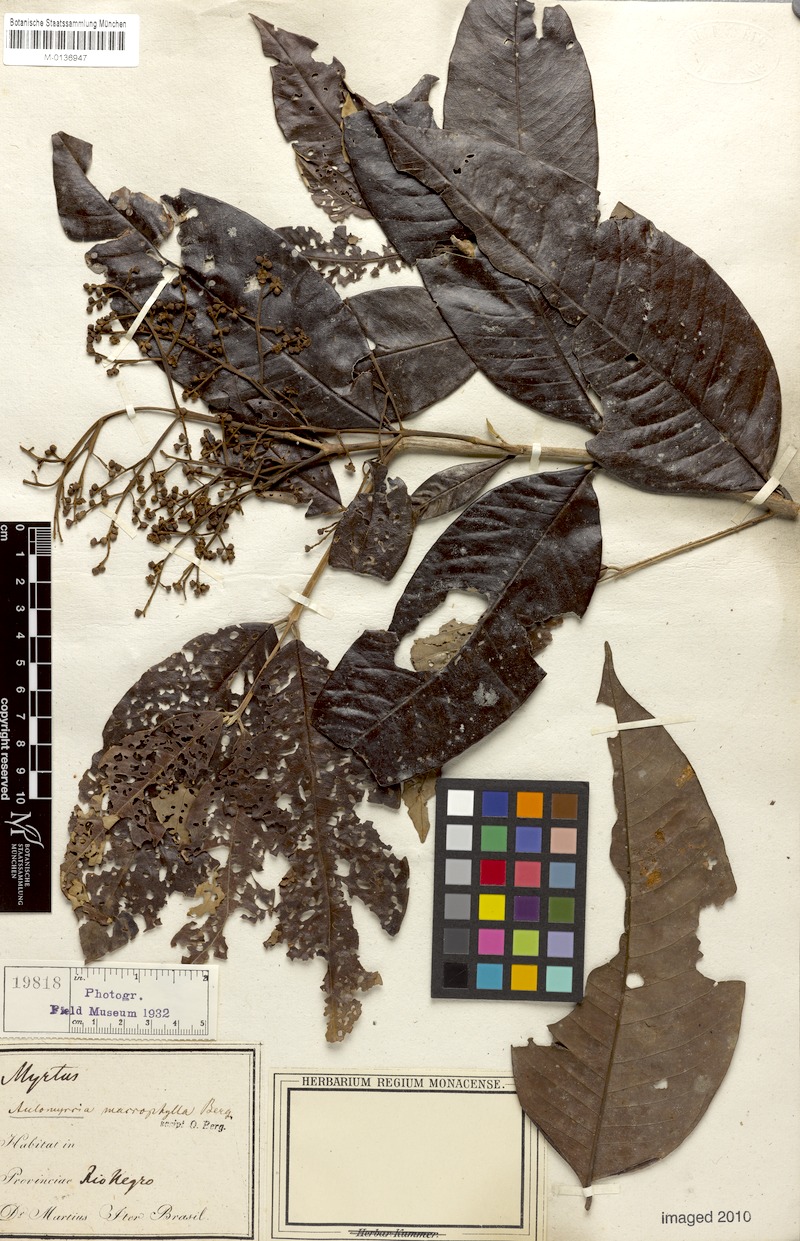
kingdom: Plantae
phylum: Tracheophyta
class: Magnoliopsida
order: Myrtales
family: Myrtaceae
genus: Myrcia
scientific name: Myrcia splendens
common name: Surinam cherry
